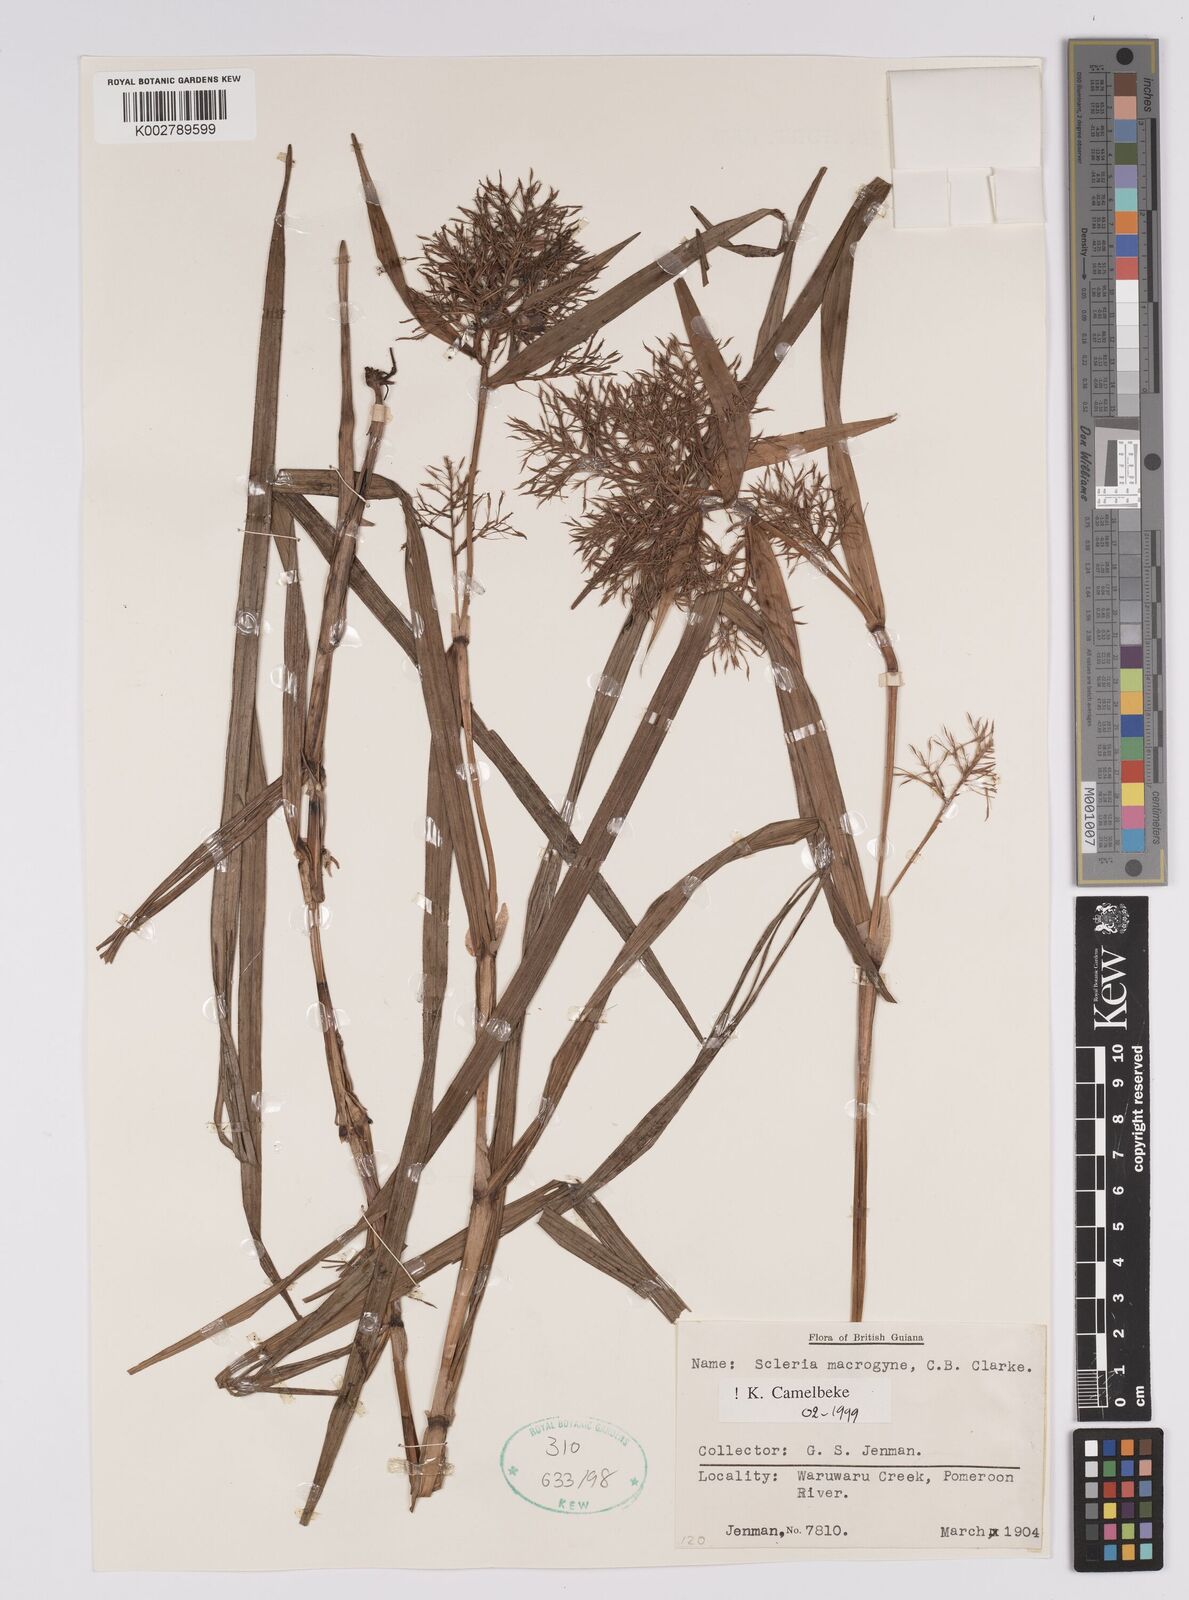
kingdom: Plantae
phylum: Tracheophyta
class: Liliopsida
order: Poales
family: Cyperaceae
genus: Scleria
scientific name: Scleria macrogyne
